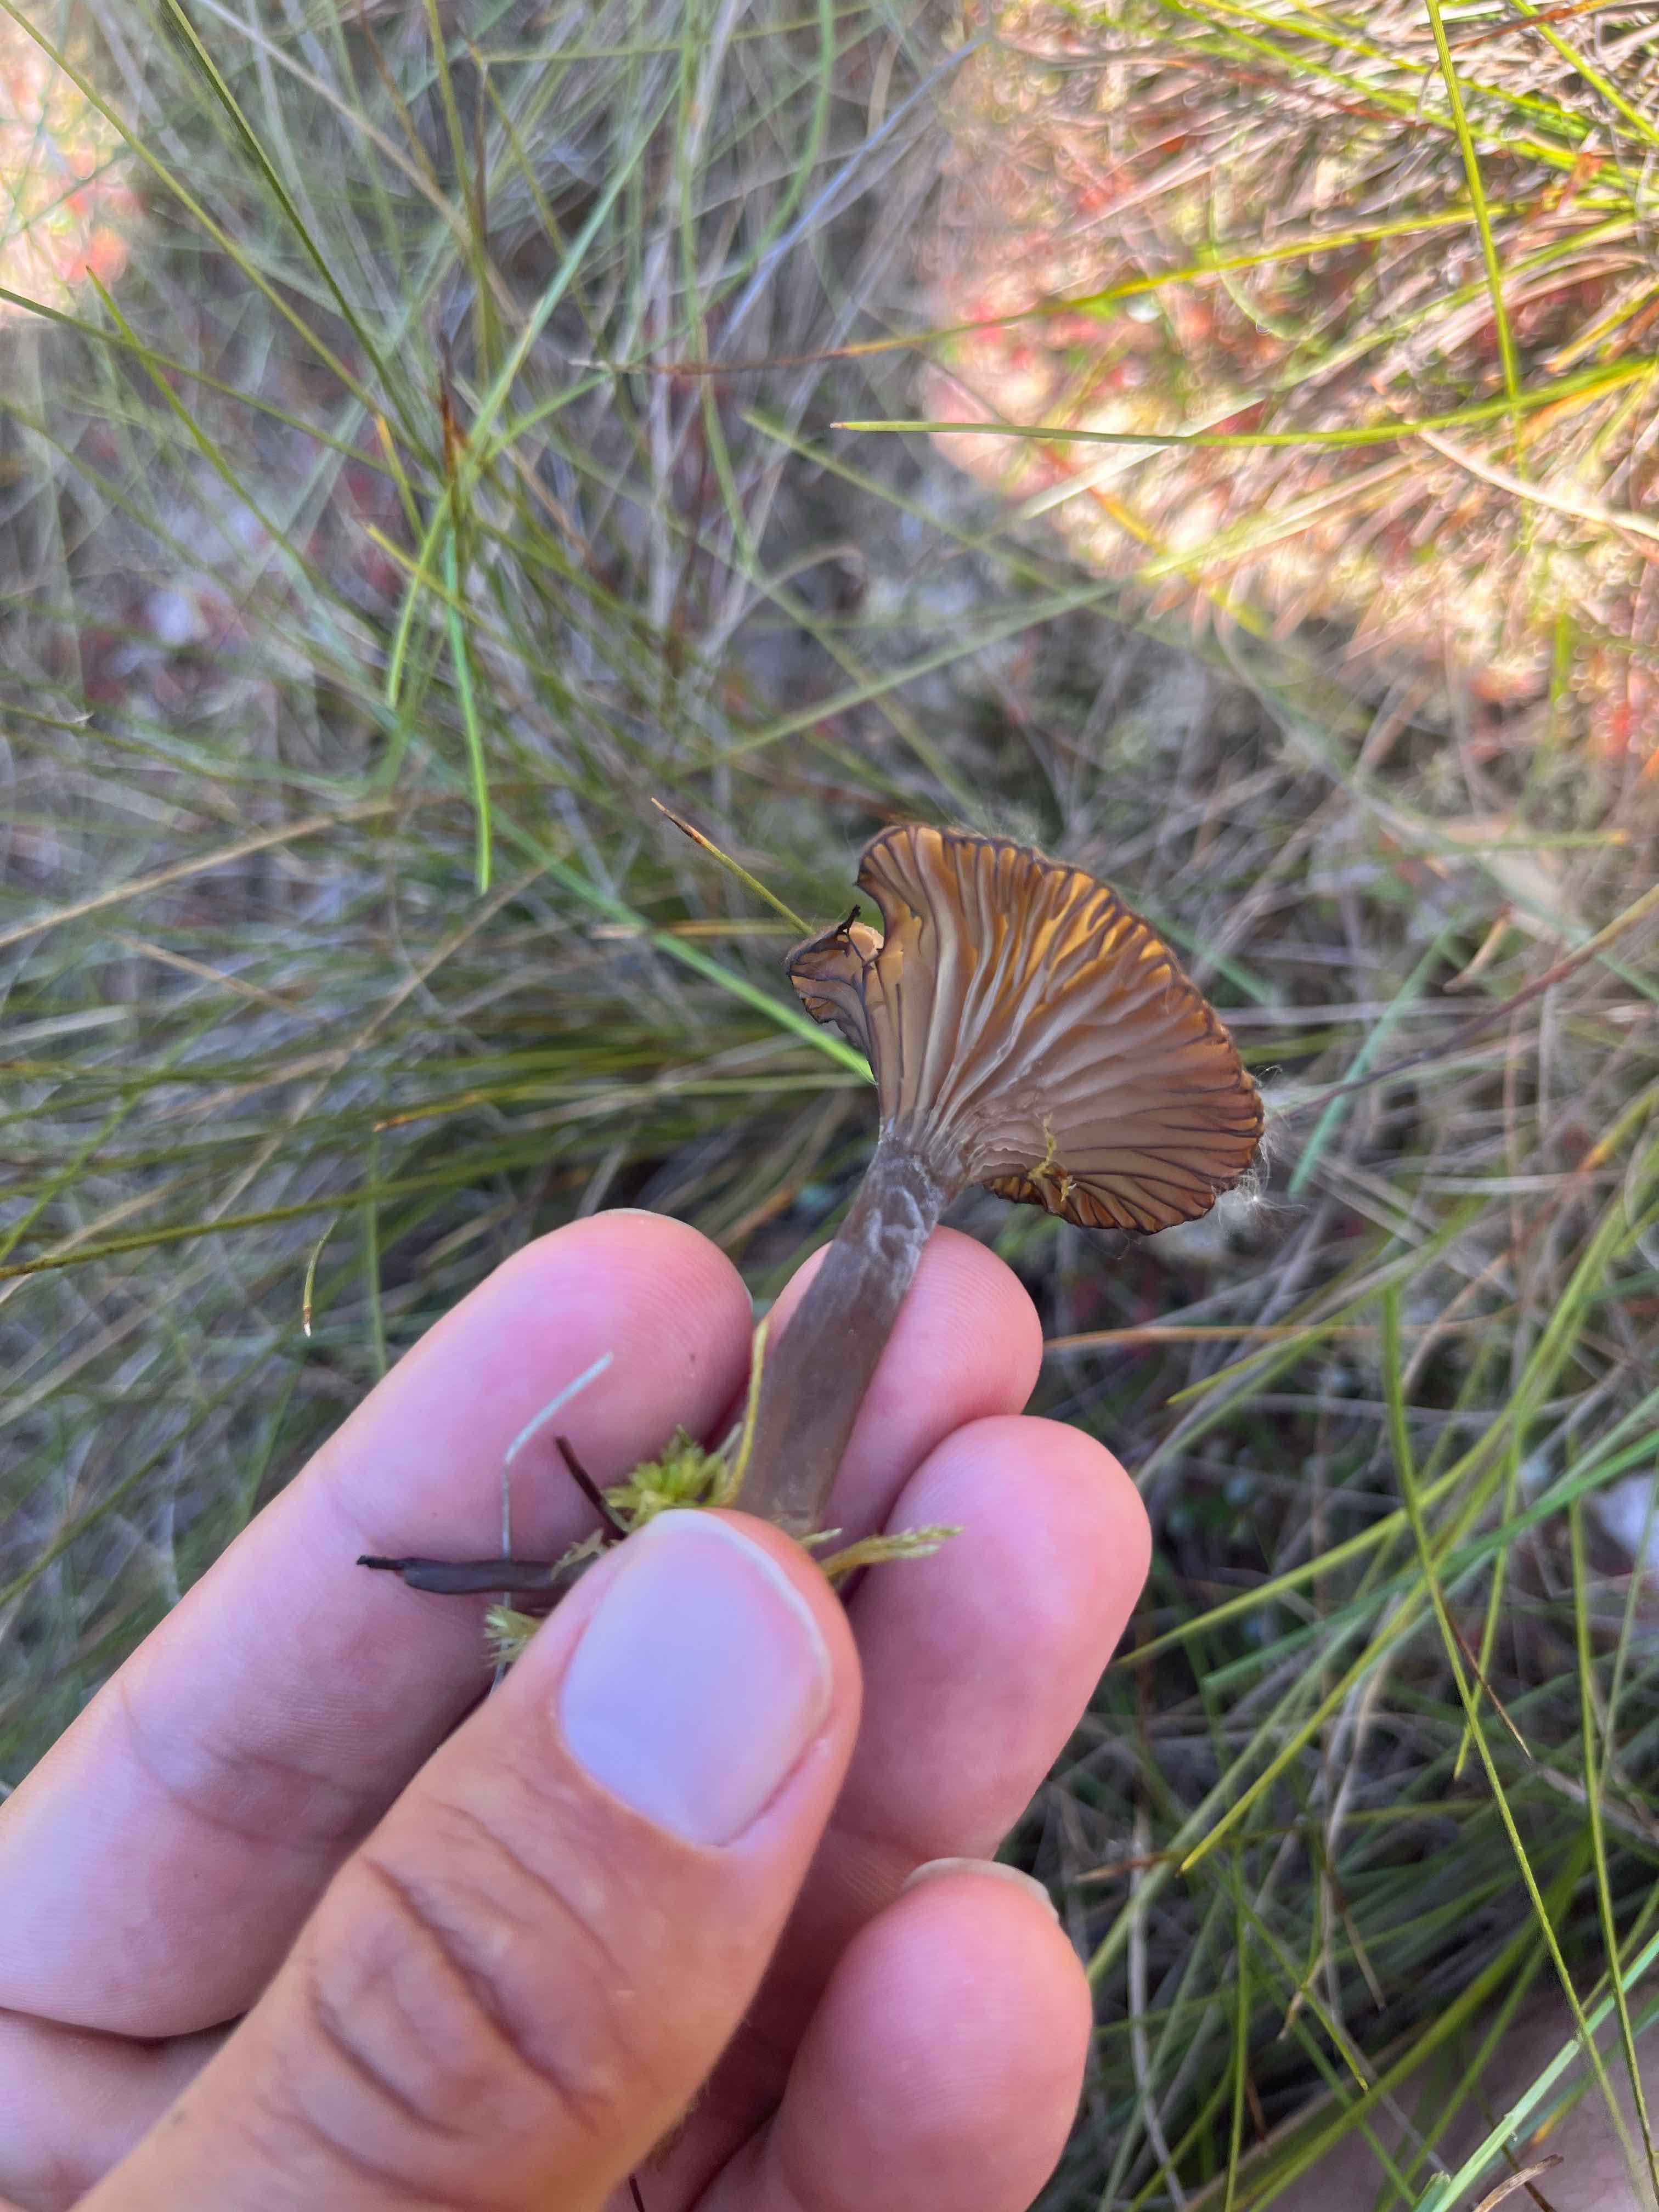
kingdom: Fungi
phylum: Basidiomycota
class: Agaricomycetes
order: Agaricales
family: Hygrophoraceae
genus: Arrhenia
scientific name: Arrhenia
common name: fontænehat
